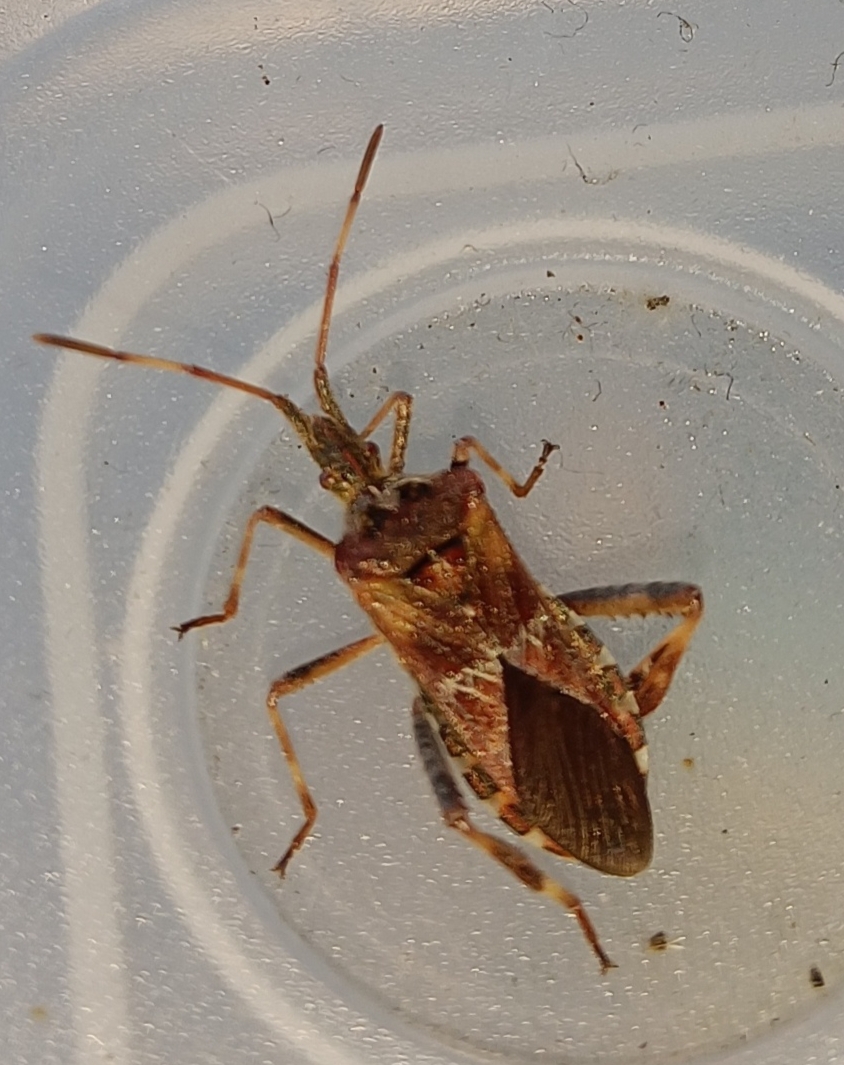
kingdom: Animalia
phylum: Arthropoda
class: Insecta
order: Hemiptera
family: Coreidae
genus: Leptoglossus
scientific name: Leptoglossus occidentalis
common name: Amerikansk fyrretæge
